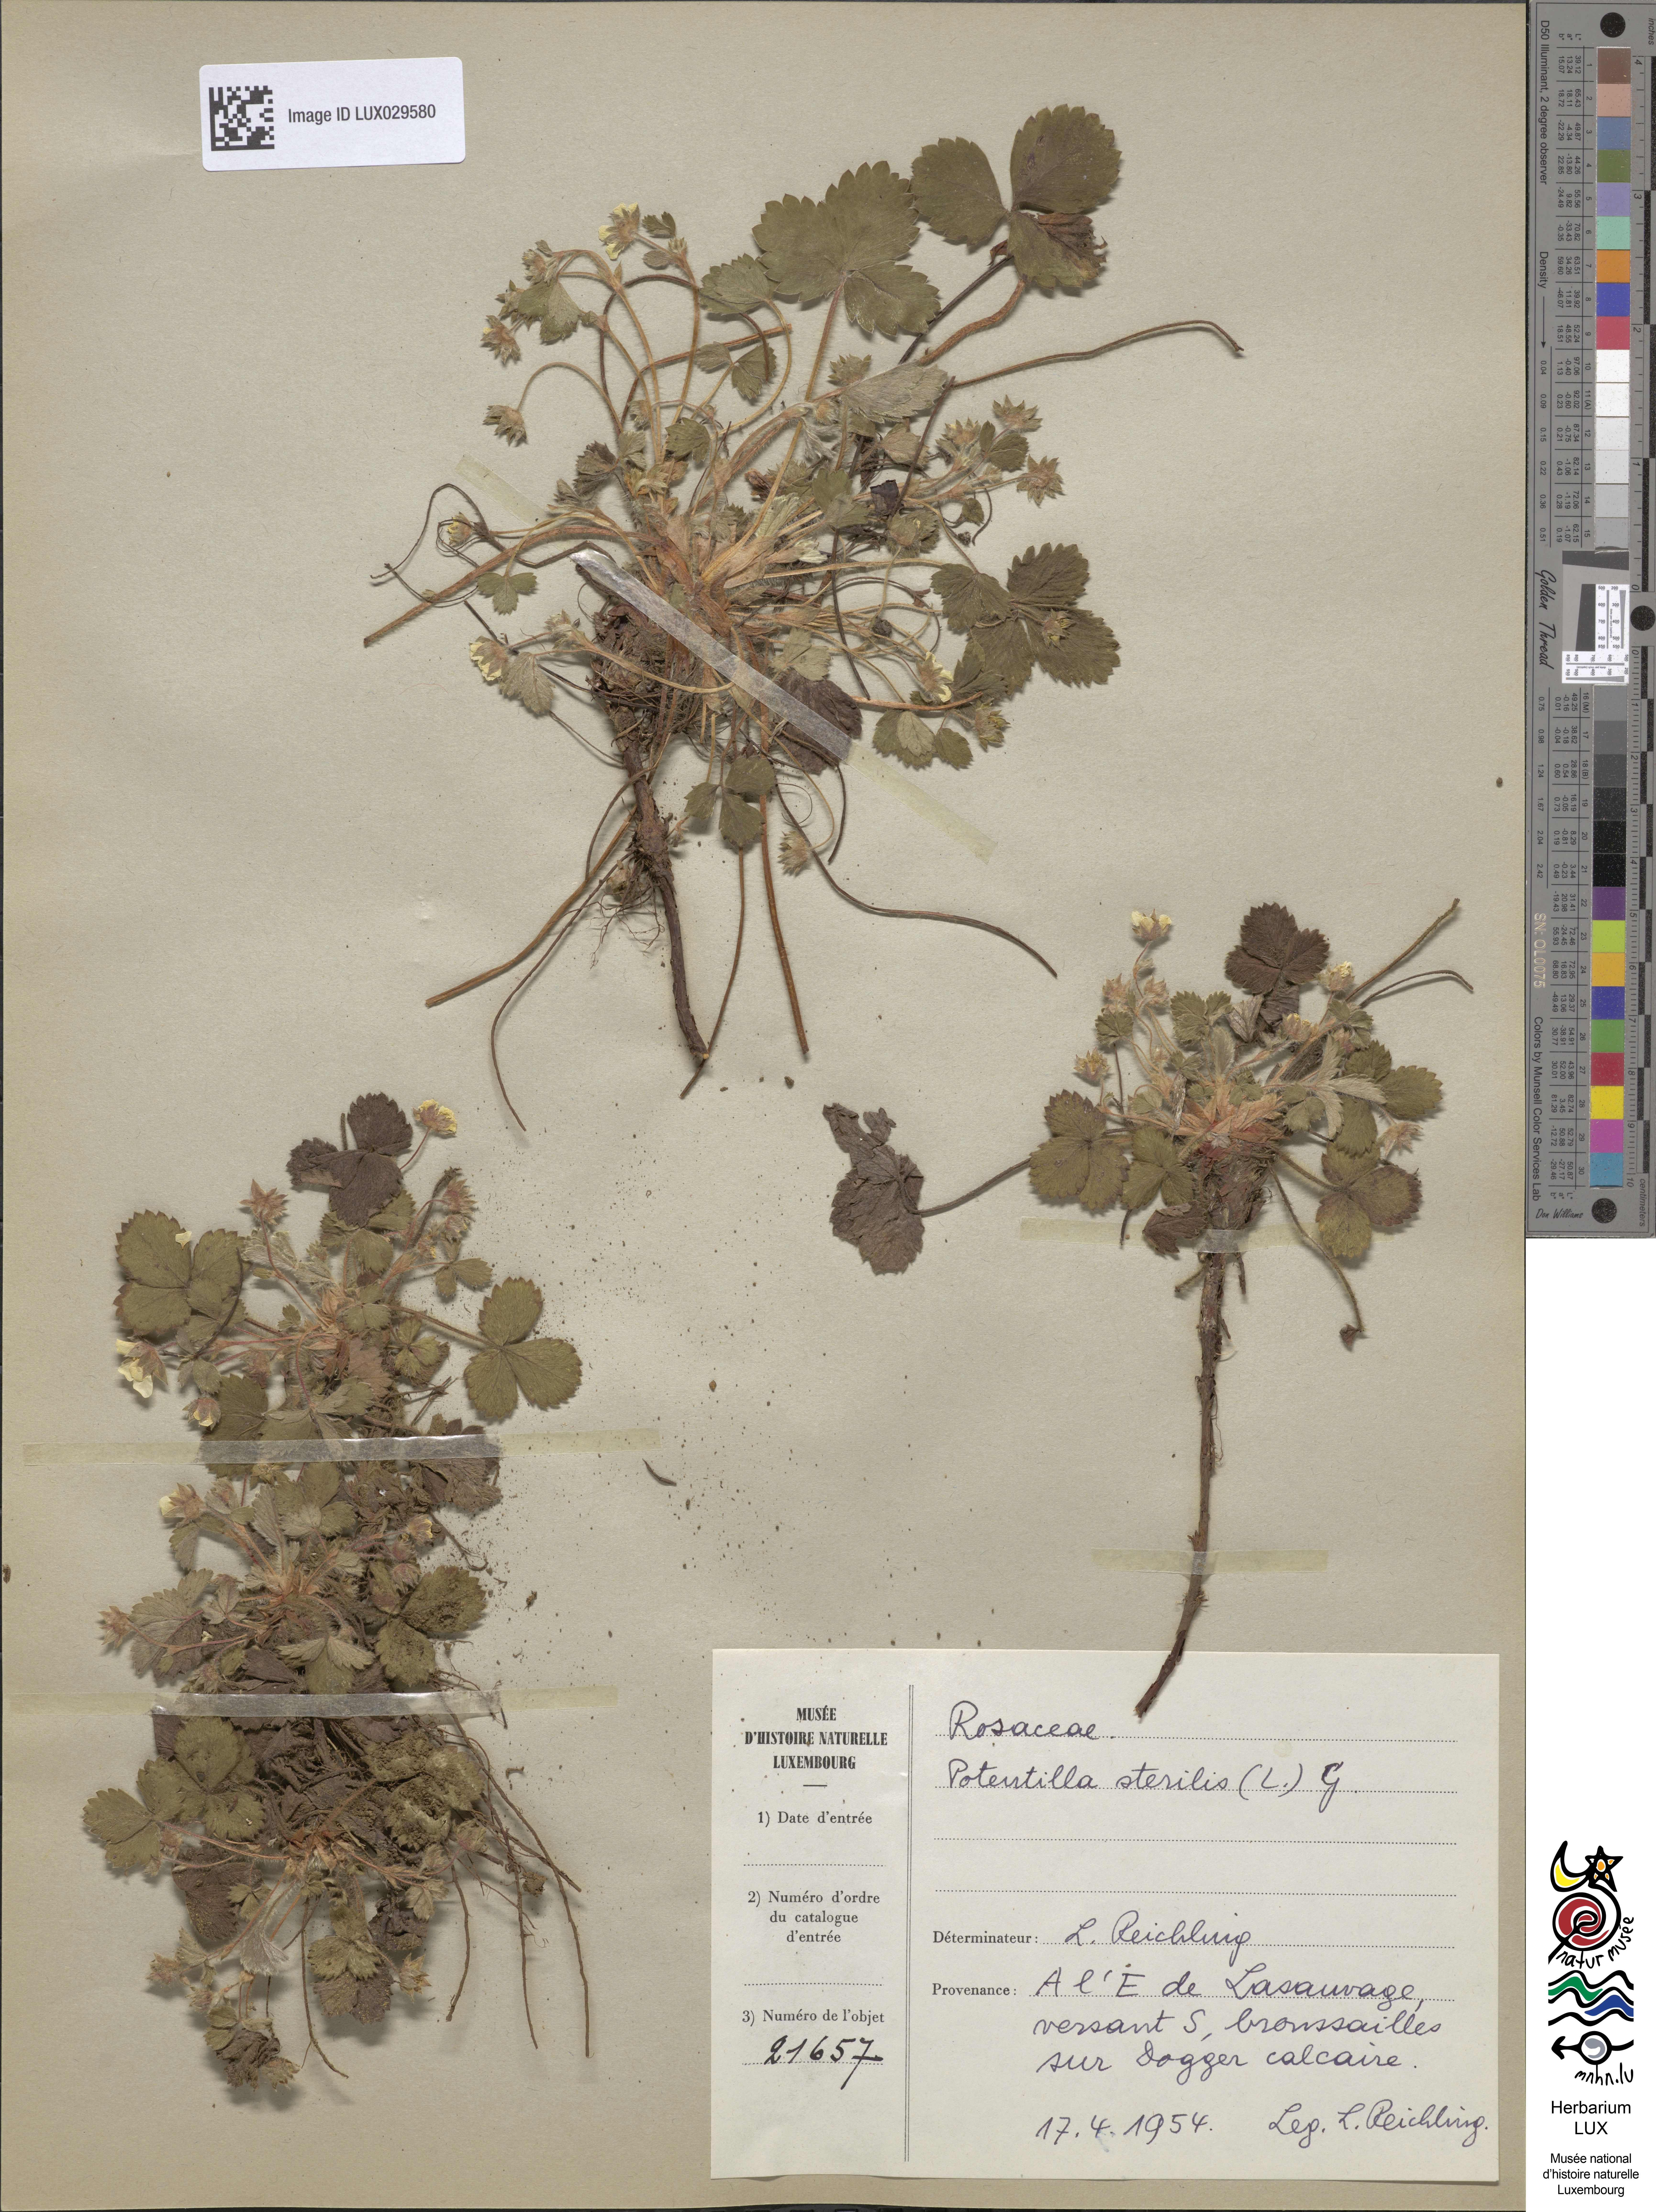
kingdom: Plantae
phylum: Tracheophyta
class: Magnoliopsida
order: Rosales
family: Rosaceae
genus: Potentilla
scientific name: Potentilla sterilis
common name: Barren strawberry
